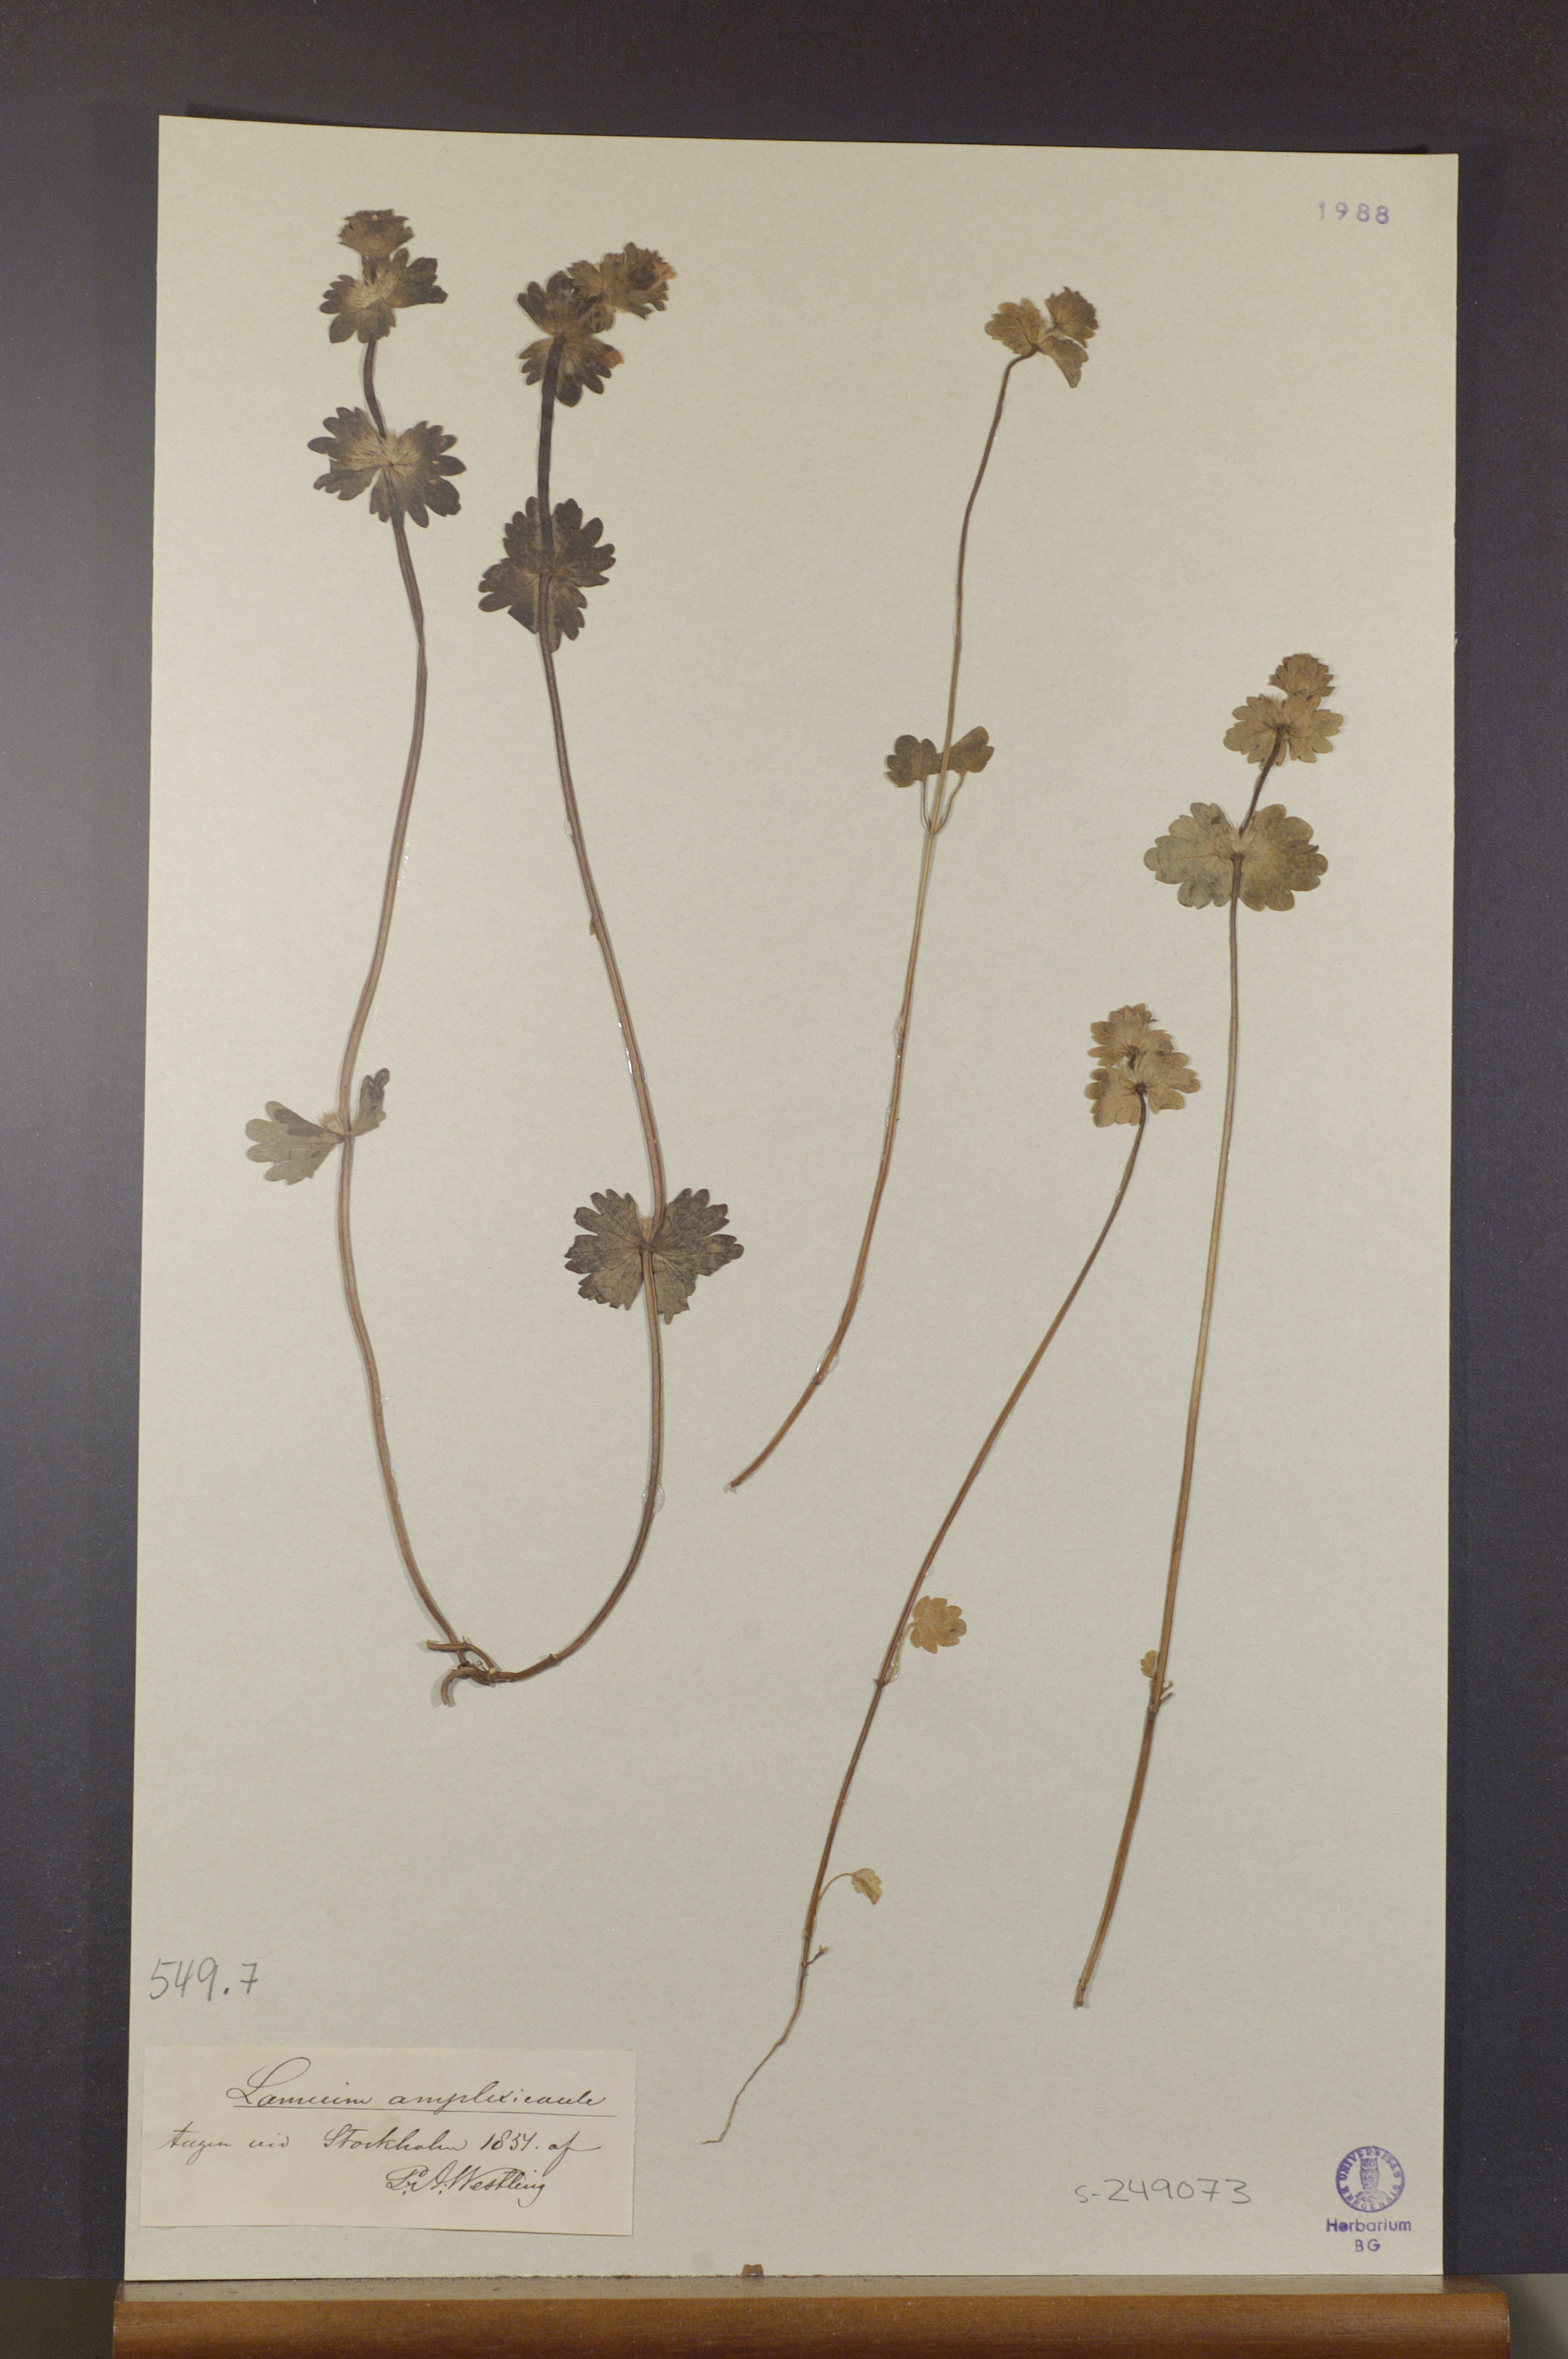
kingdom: Plantae
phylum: Tracheophyta
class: Magnoliopsida
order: Lamiales
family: Lamiaceae
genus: Lamium
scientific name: Lamium amplexicaule
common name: Henbit dead-nettle
